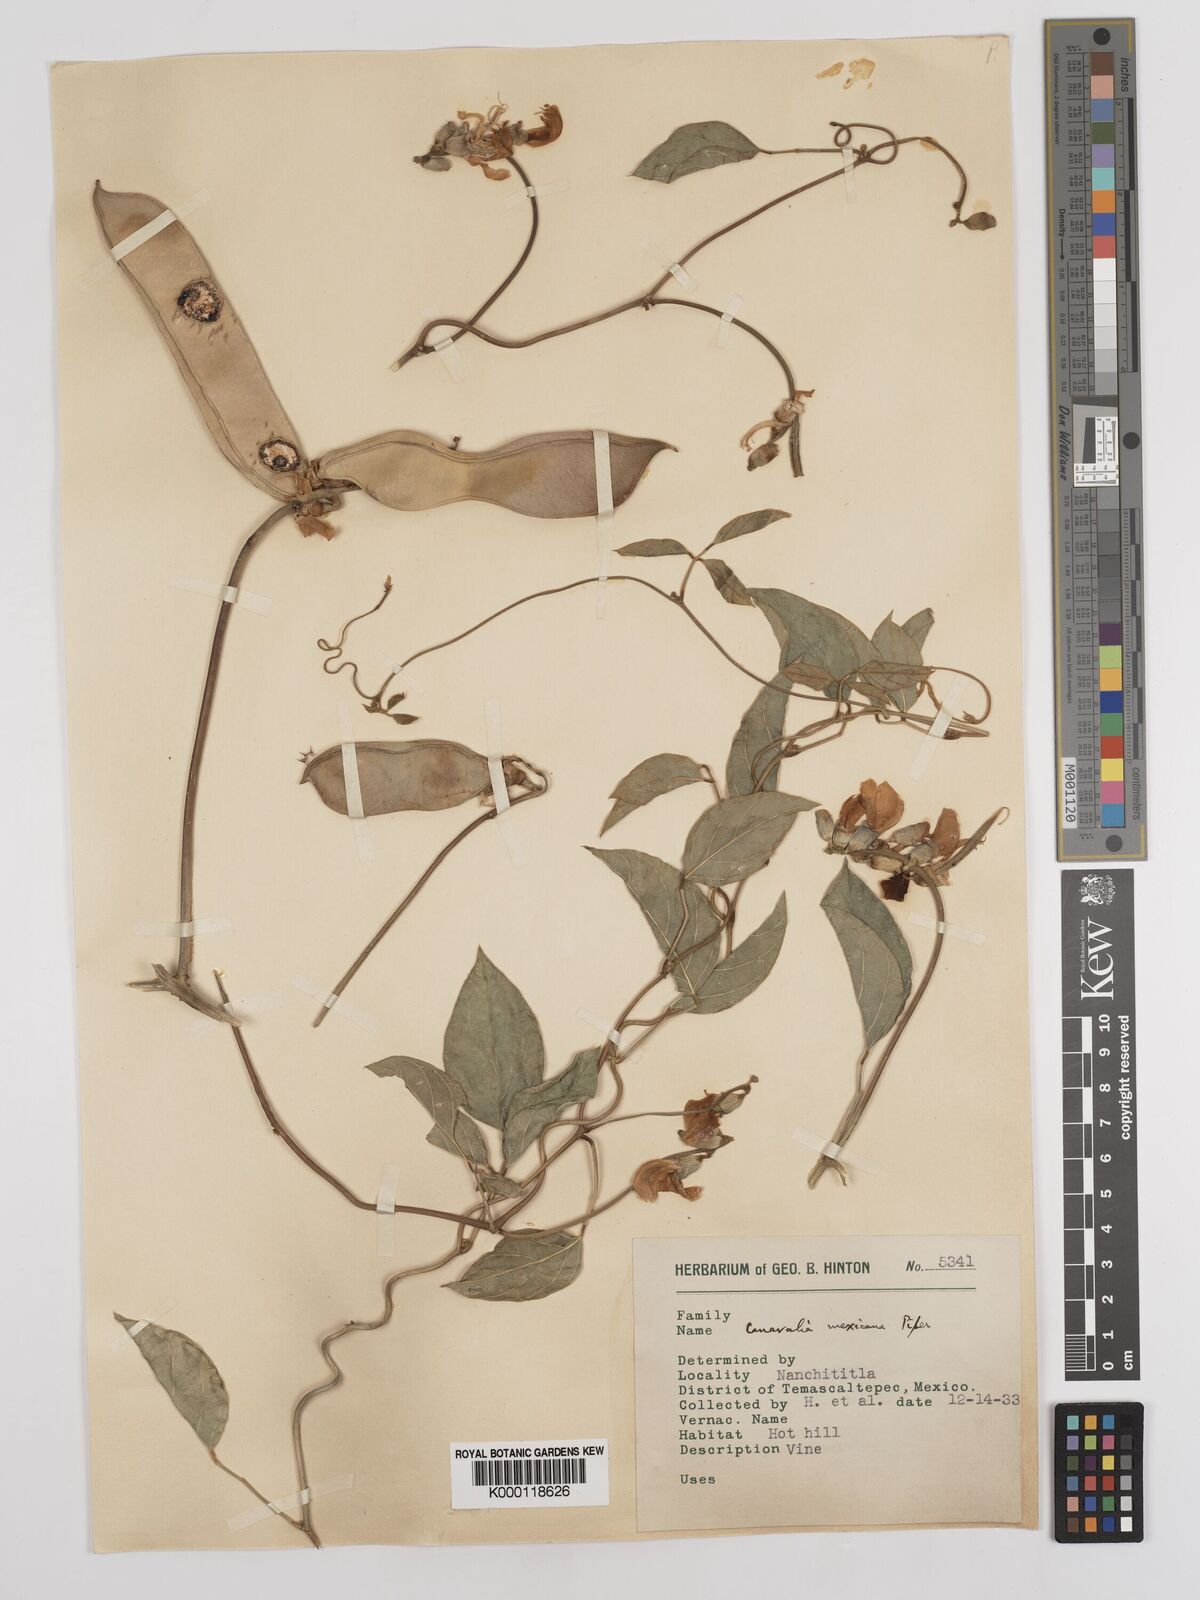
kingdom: Plantae
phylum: Tracheophyta
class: Magnoliopsida
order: Fabales
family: Fabaceae
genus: Canavalia
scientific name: Canavalia brasiliensis
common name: Barbicou-bean
